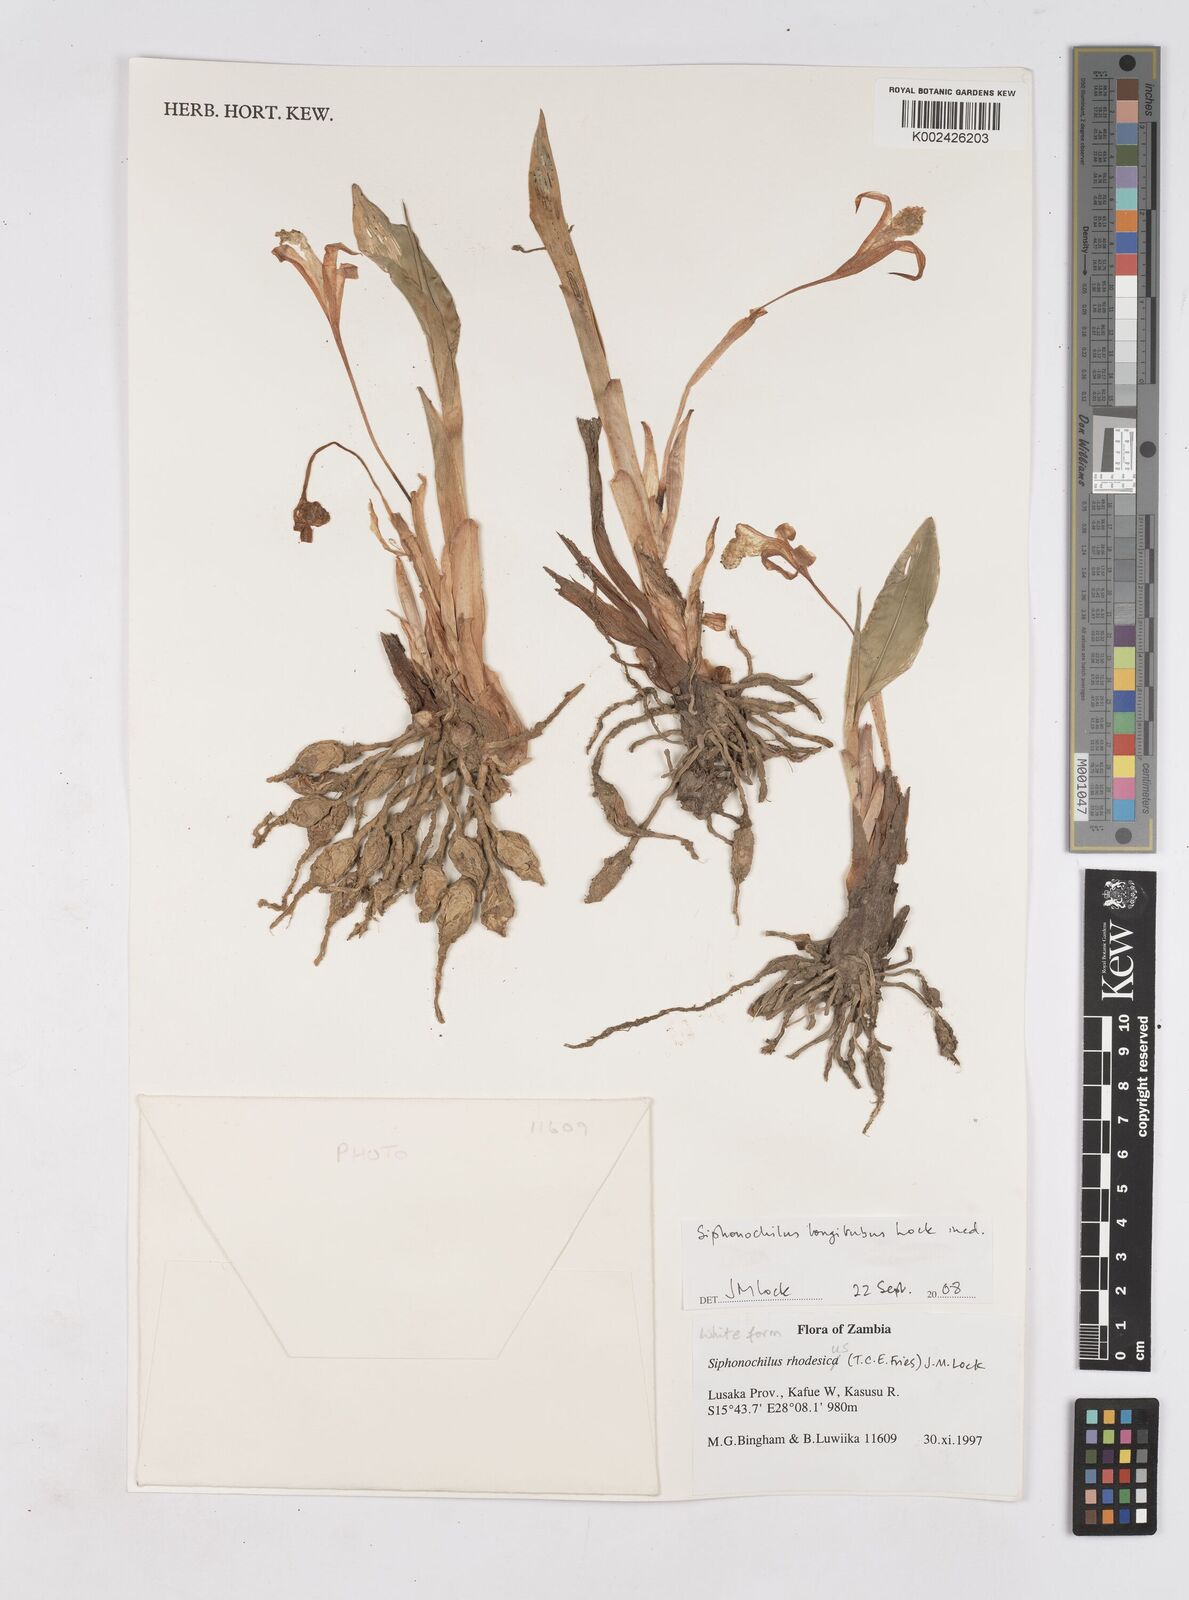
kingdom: Plantae
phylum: Tracheophyta
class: Liliopsida
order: Zingiberales
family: Zingiberaceae
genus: Siphonochilus
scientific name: Siphonochilus longitubus
